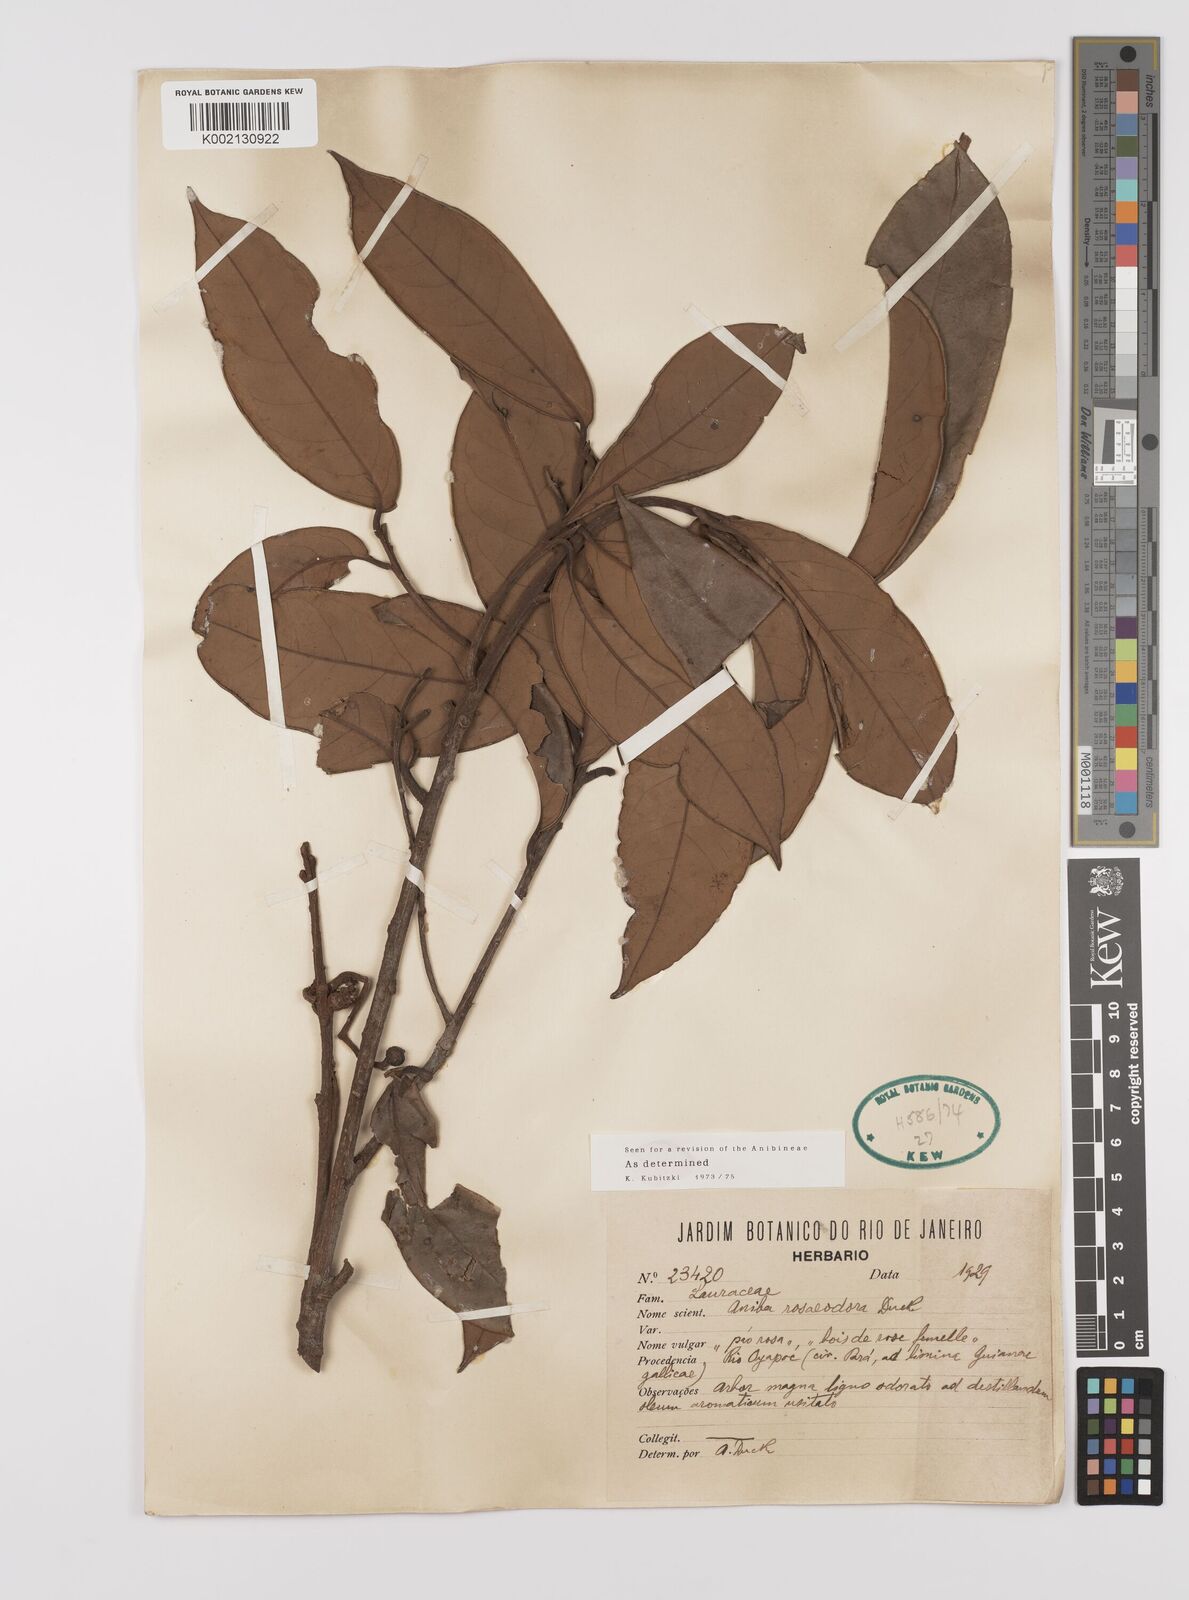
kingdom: Plantae
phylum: Tracheophyta
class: Magnoliopsida
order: Laurales
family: Lauraceae
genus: Aniba
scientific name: Aniba rosodora
